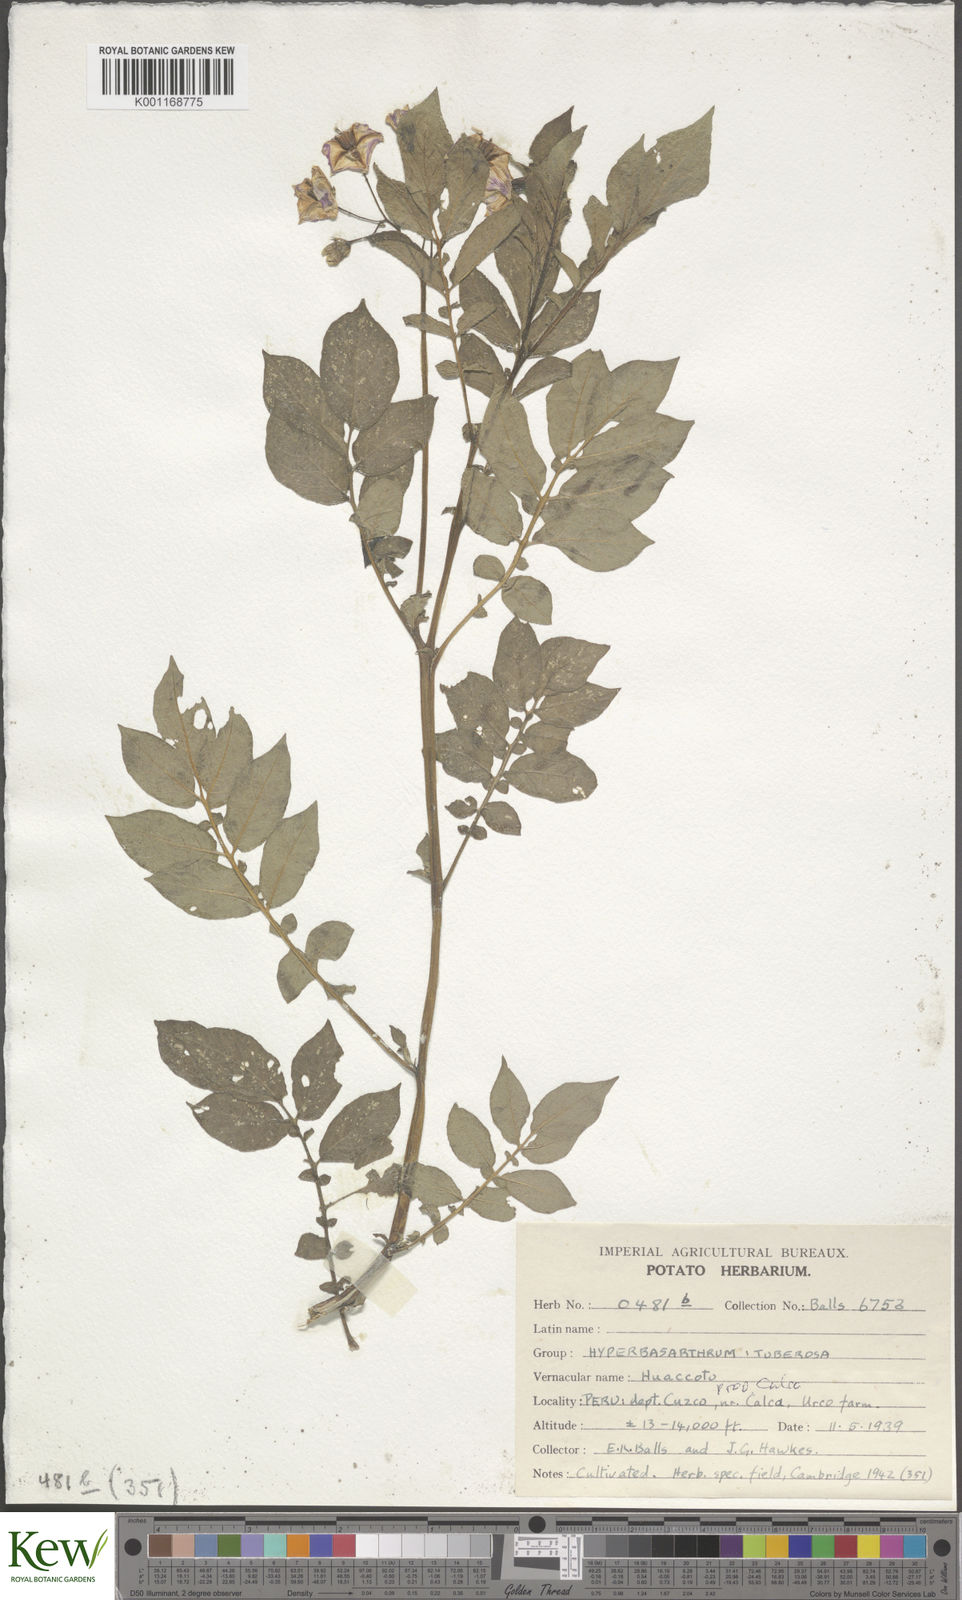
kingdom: Plantae
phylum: Tracheophyta
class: Magnoliopsida
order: Solanales
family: Solanaceae
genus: Solanum
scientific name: Solanum chaucha
